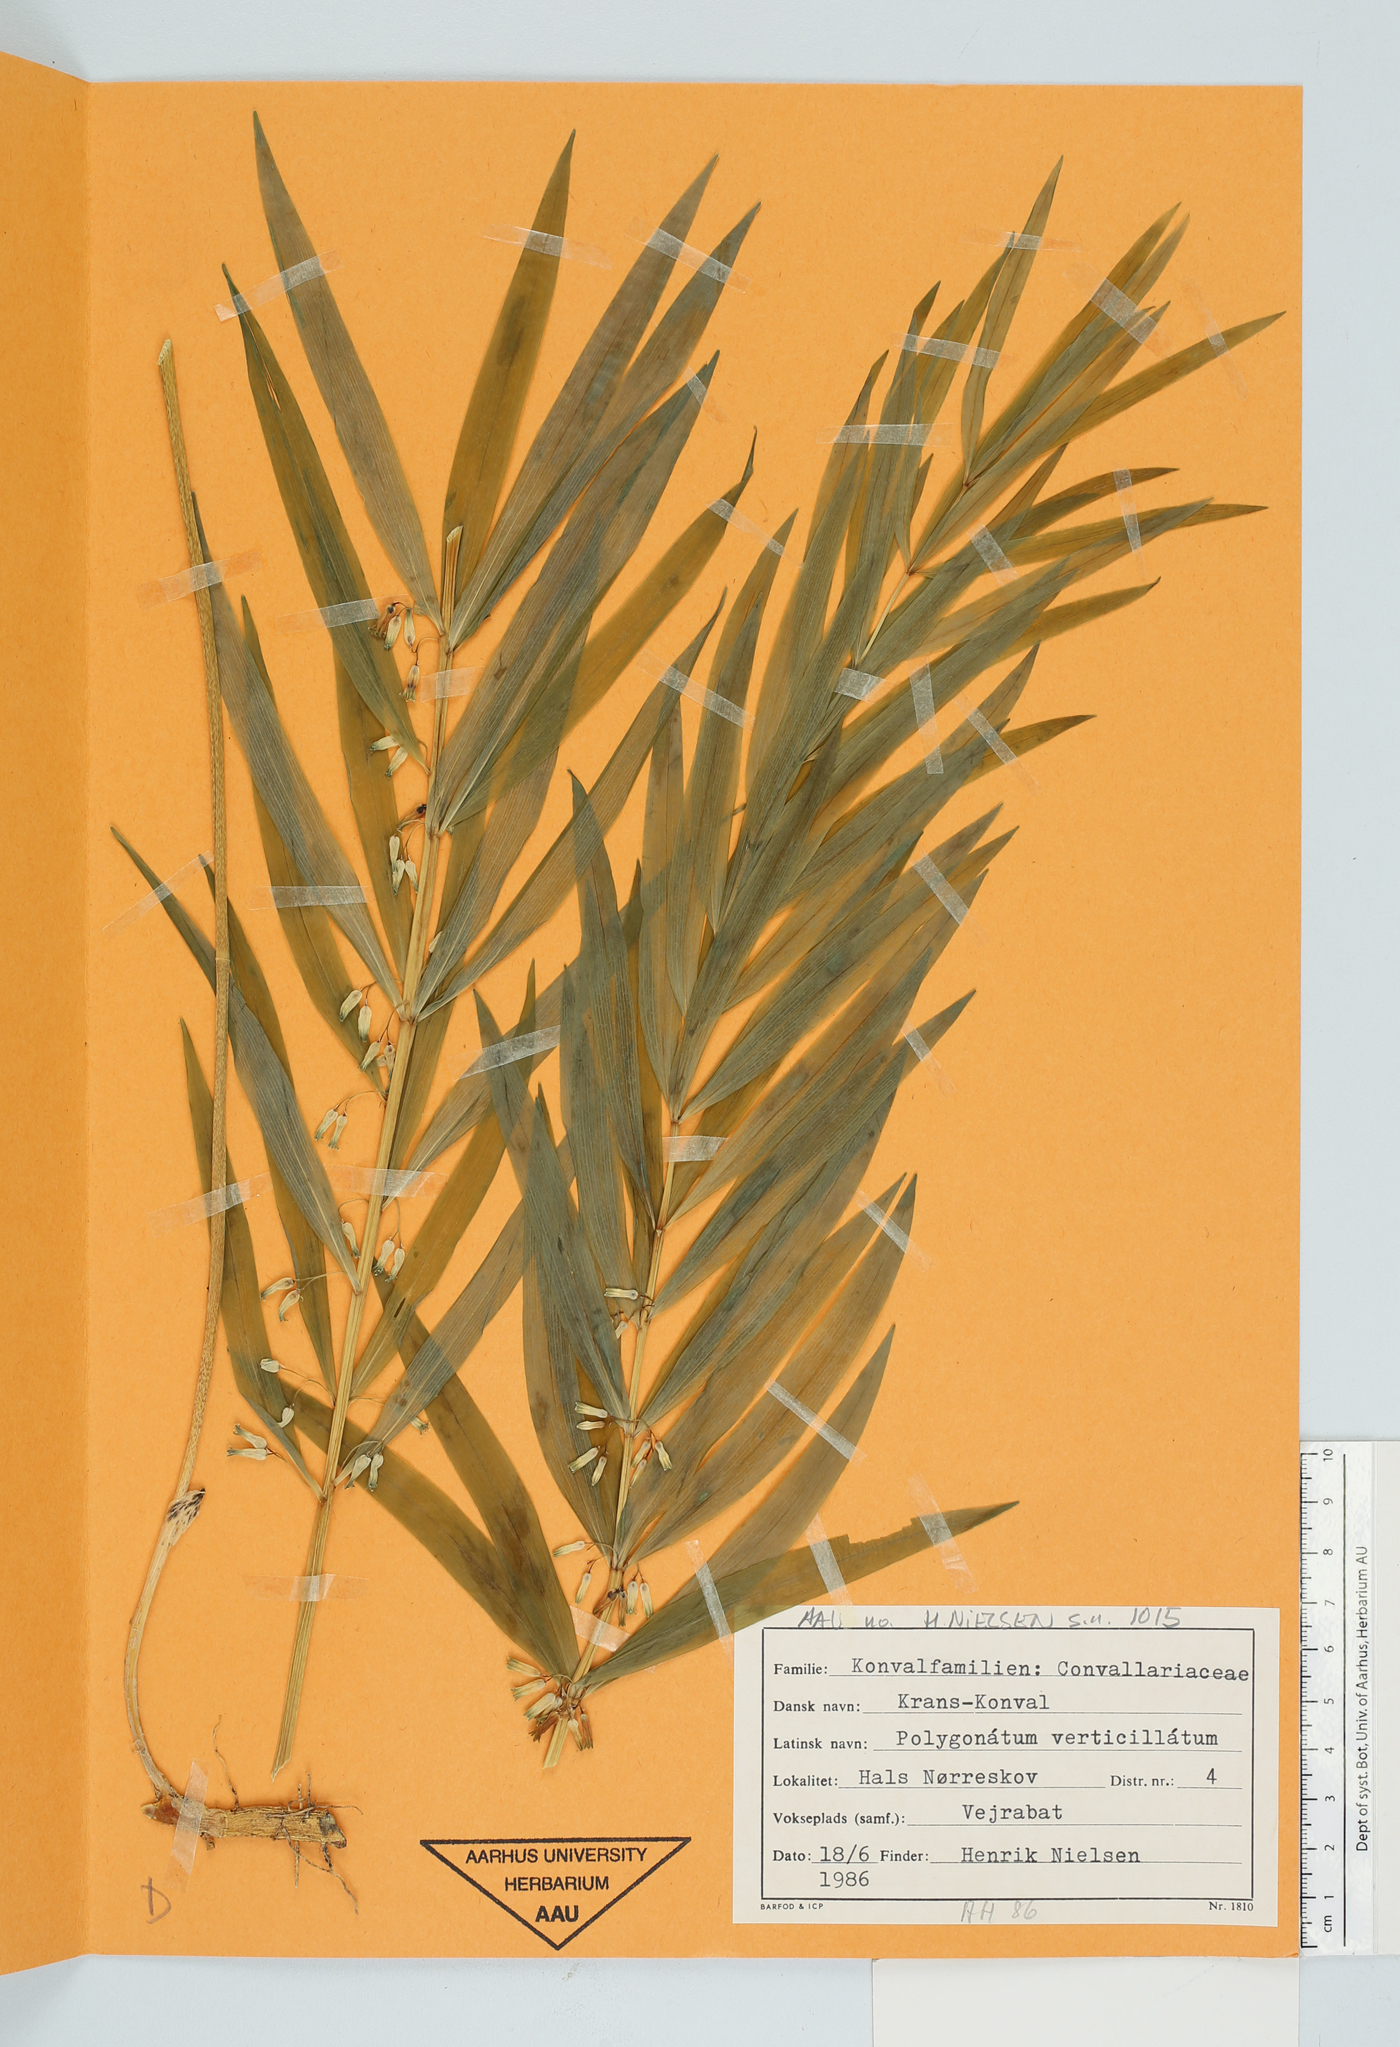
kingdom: Plantae
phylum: Tracheophyta
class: Liliopsida
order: Asparagales
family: Asparagaceae
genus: Polygonatum
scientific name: Polygonatum verticillatum
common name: Whorled solomon's-seal
